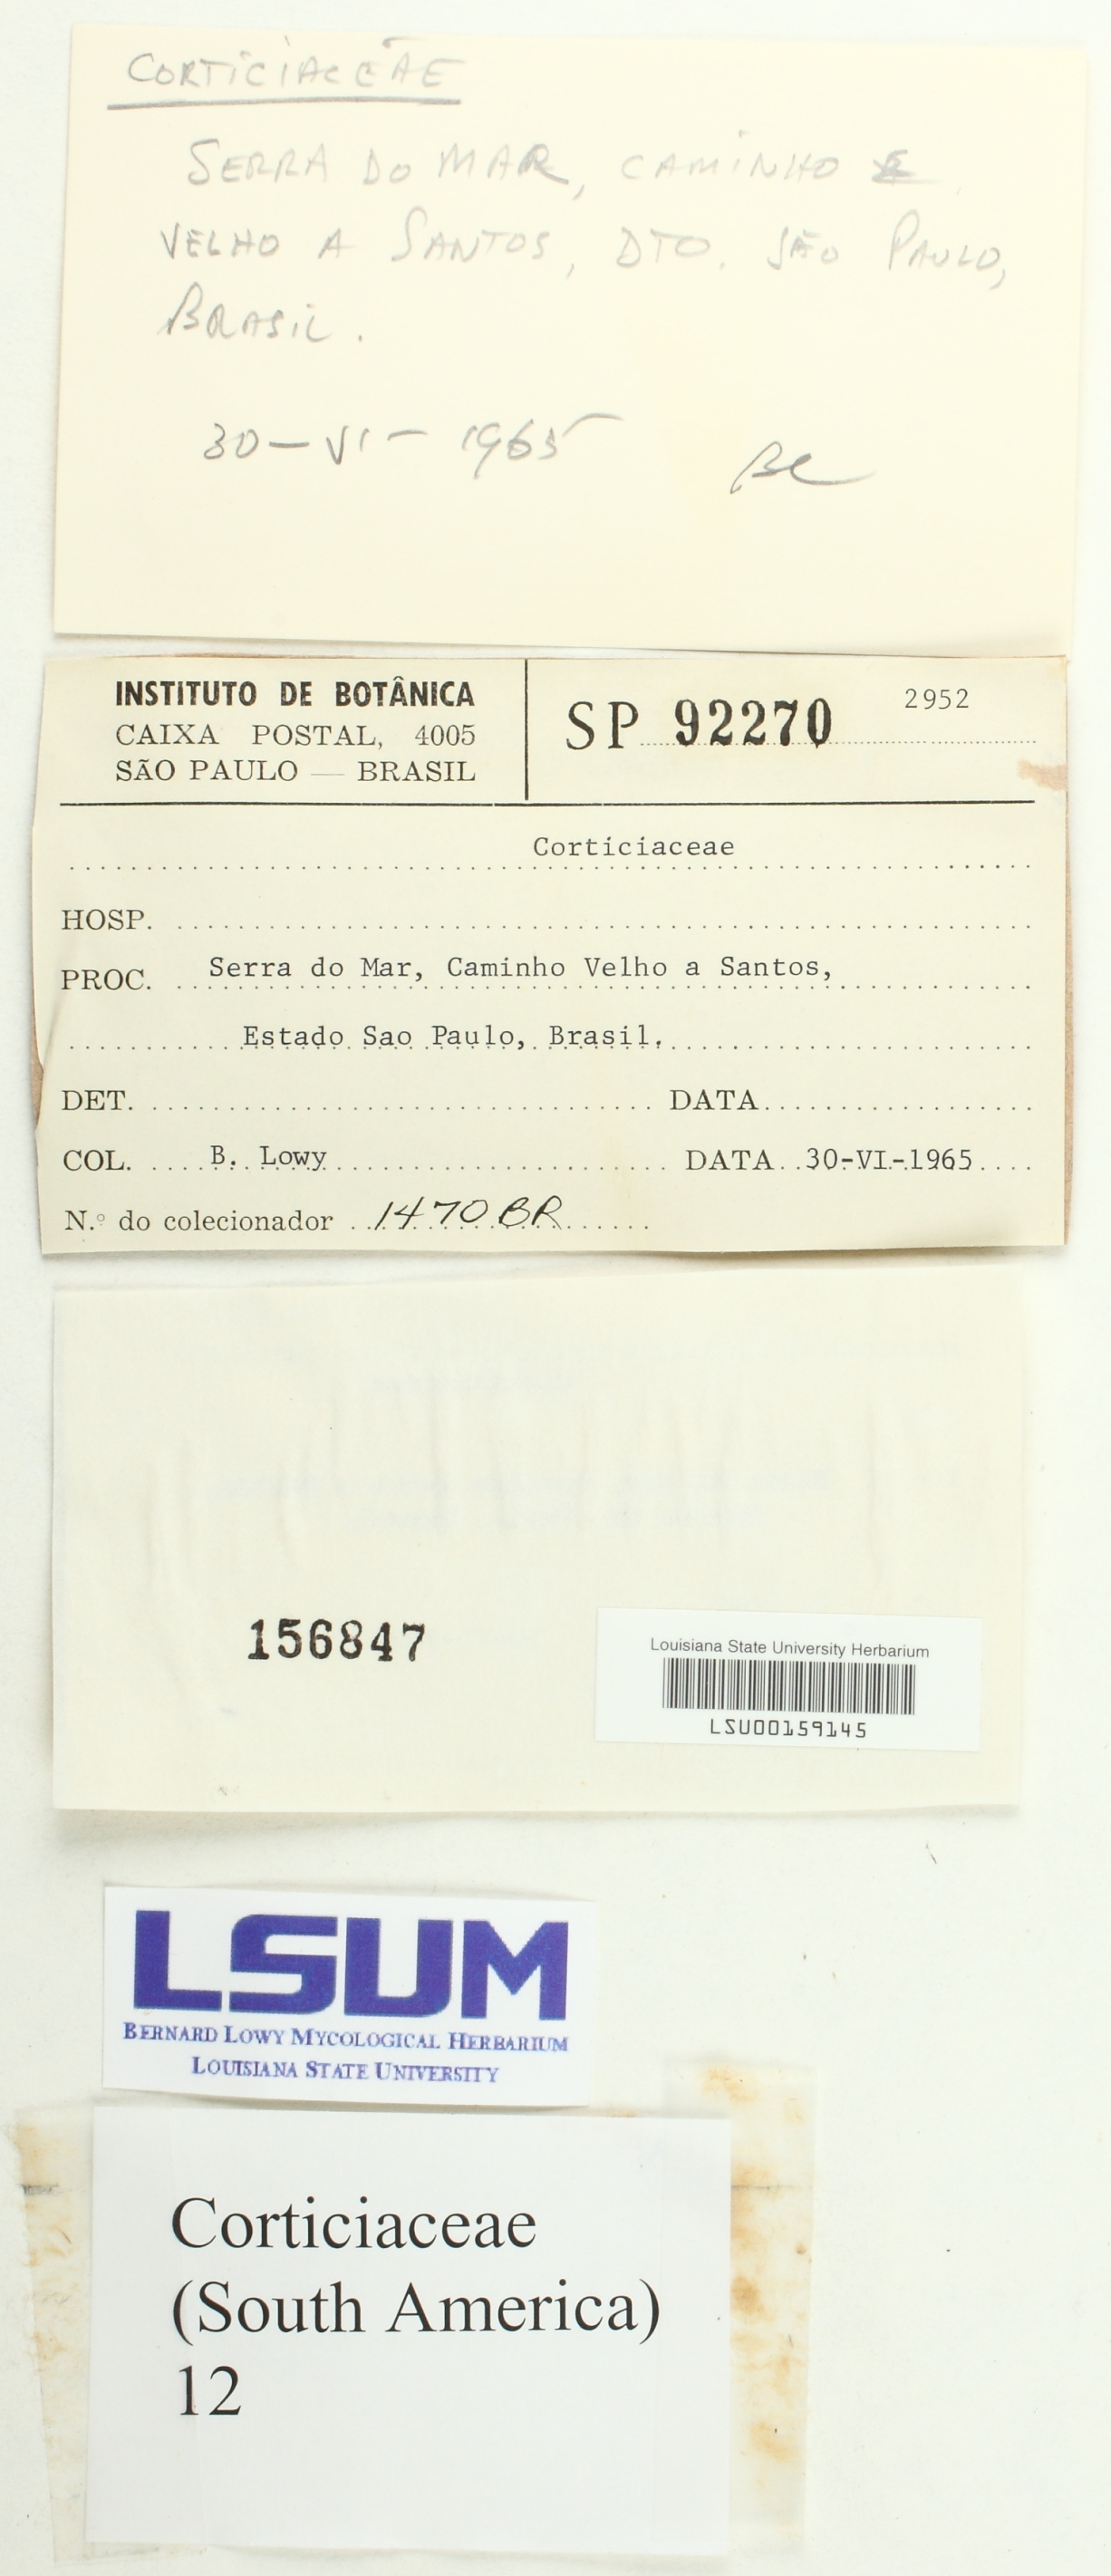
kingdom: Fungi
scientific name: Fungi
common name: Fungi
